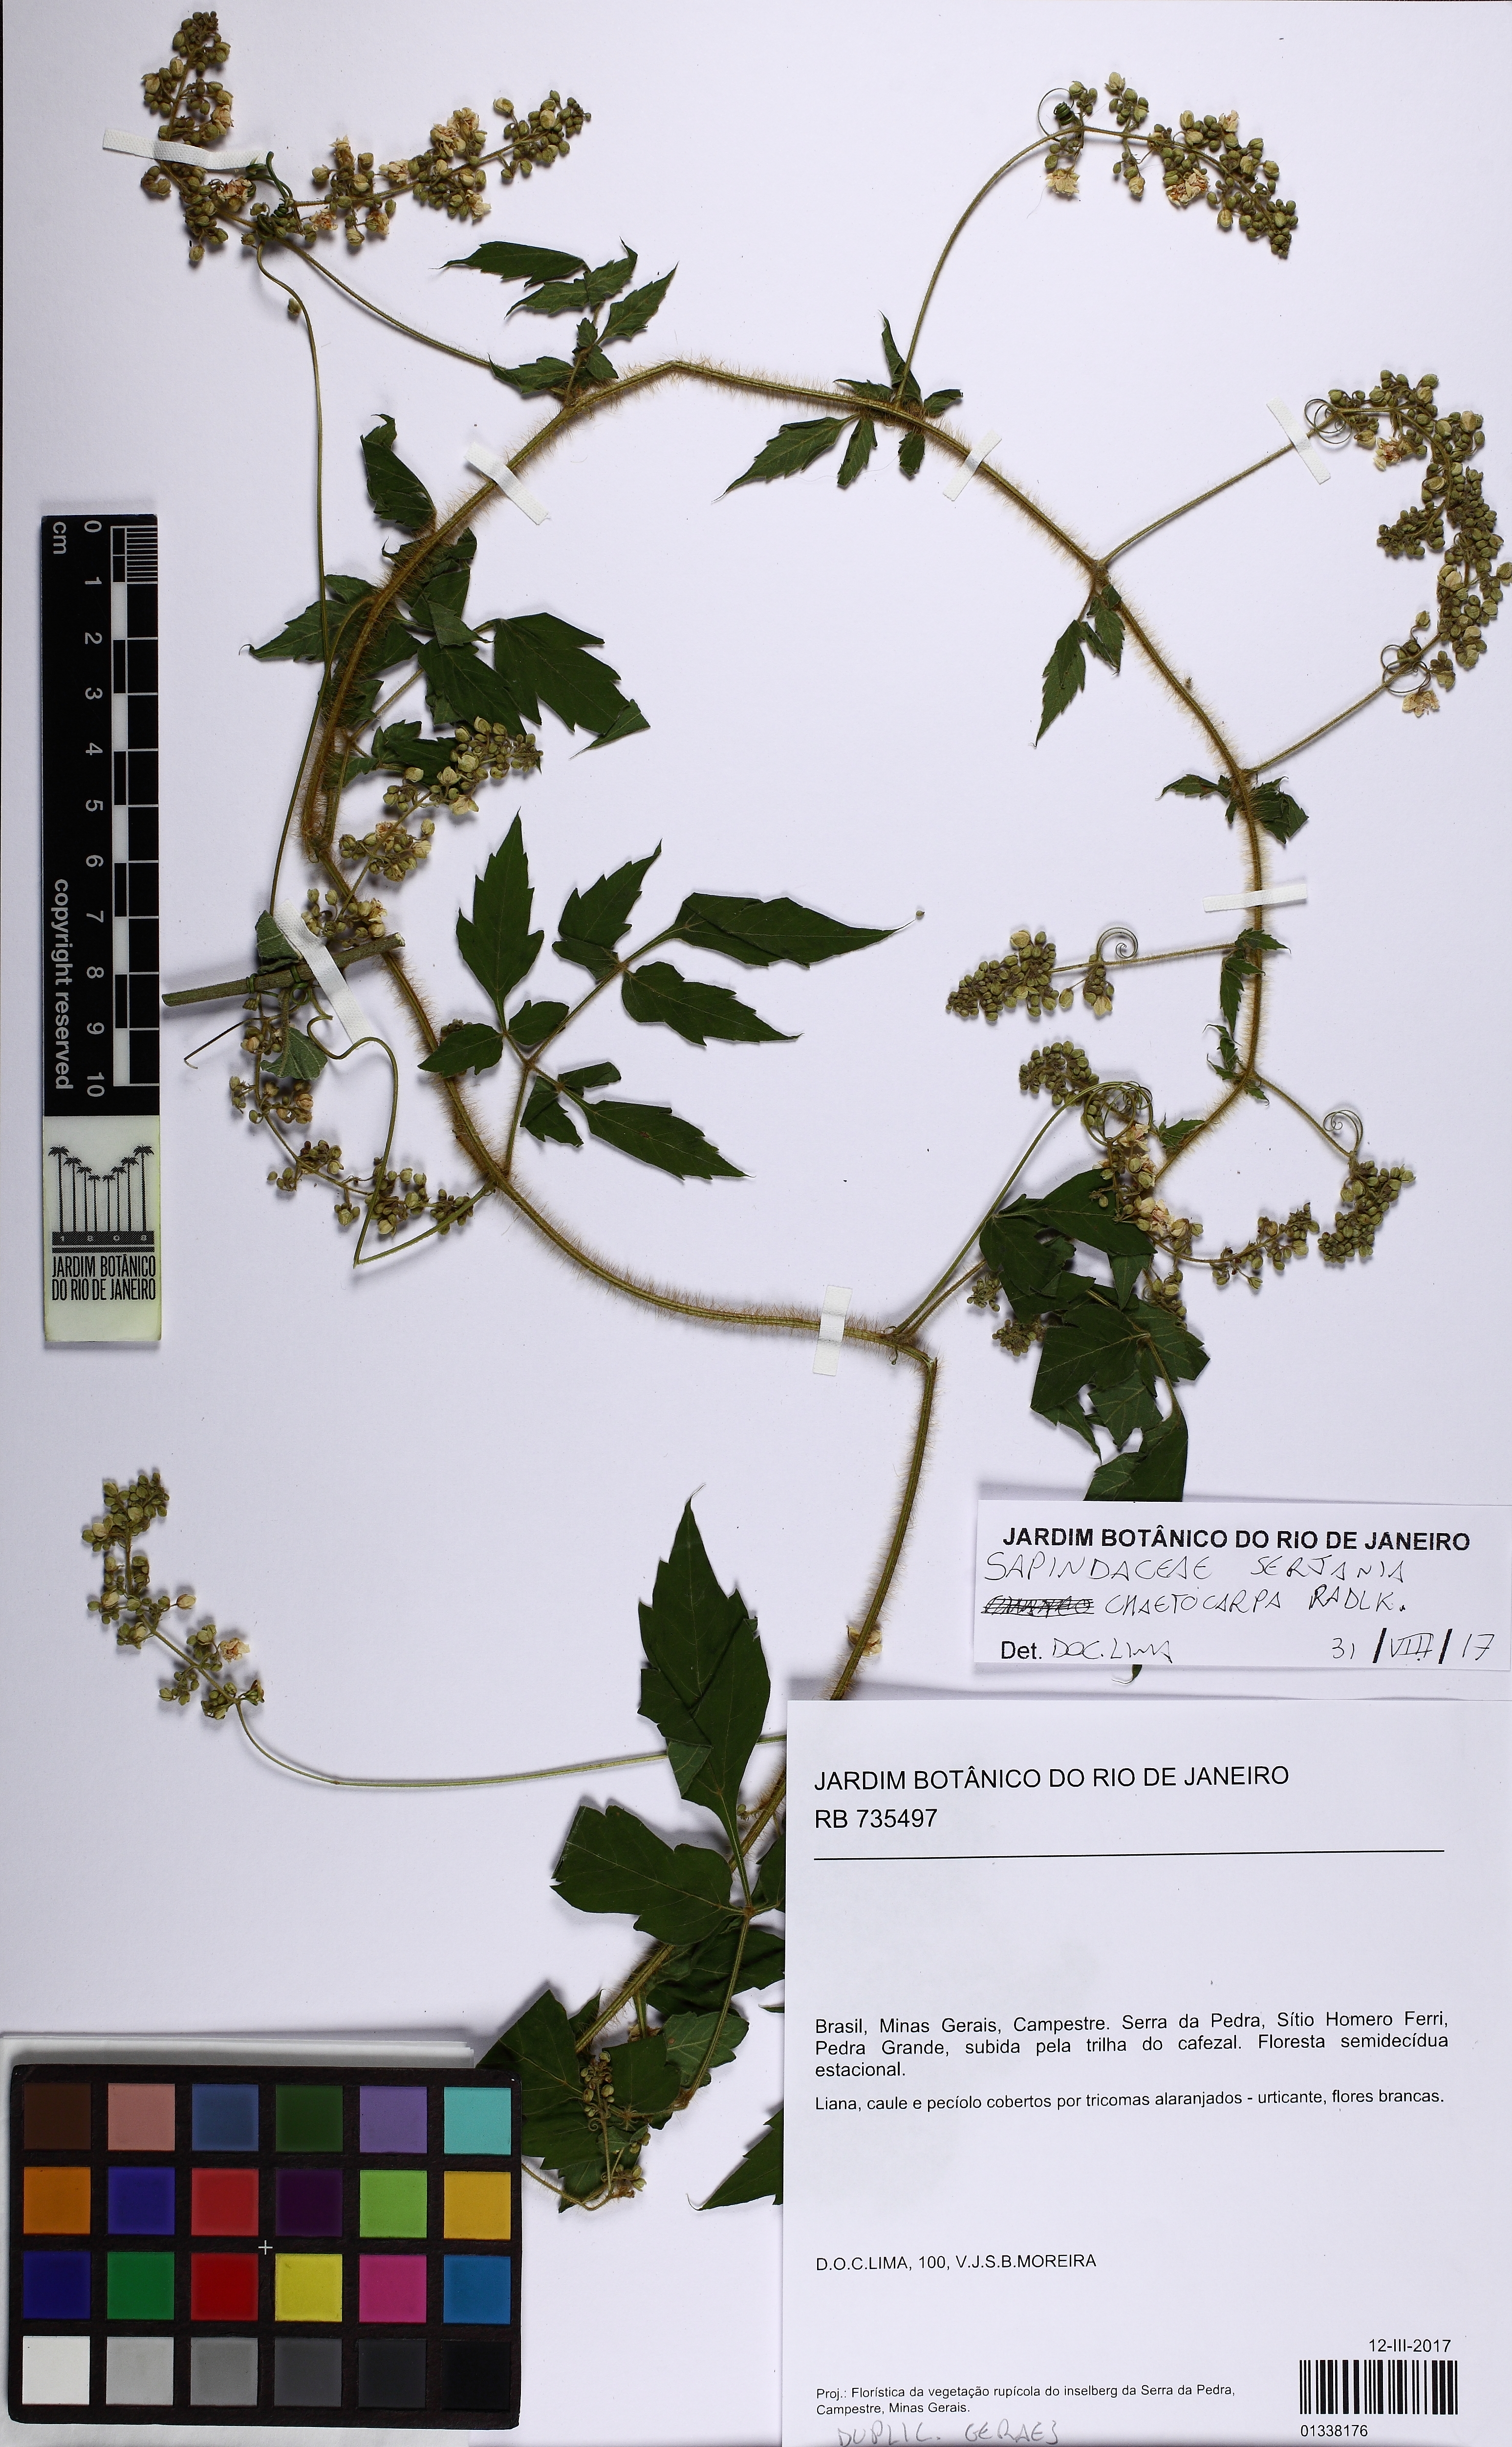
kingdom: Plantae
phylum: Tracheophyta
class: Magnoliopsida
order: Sapindales
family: Sapindaceae
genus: Serjania
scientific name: Serjania chaetocarpa
